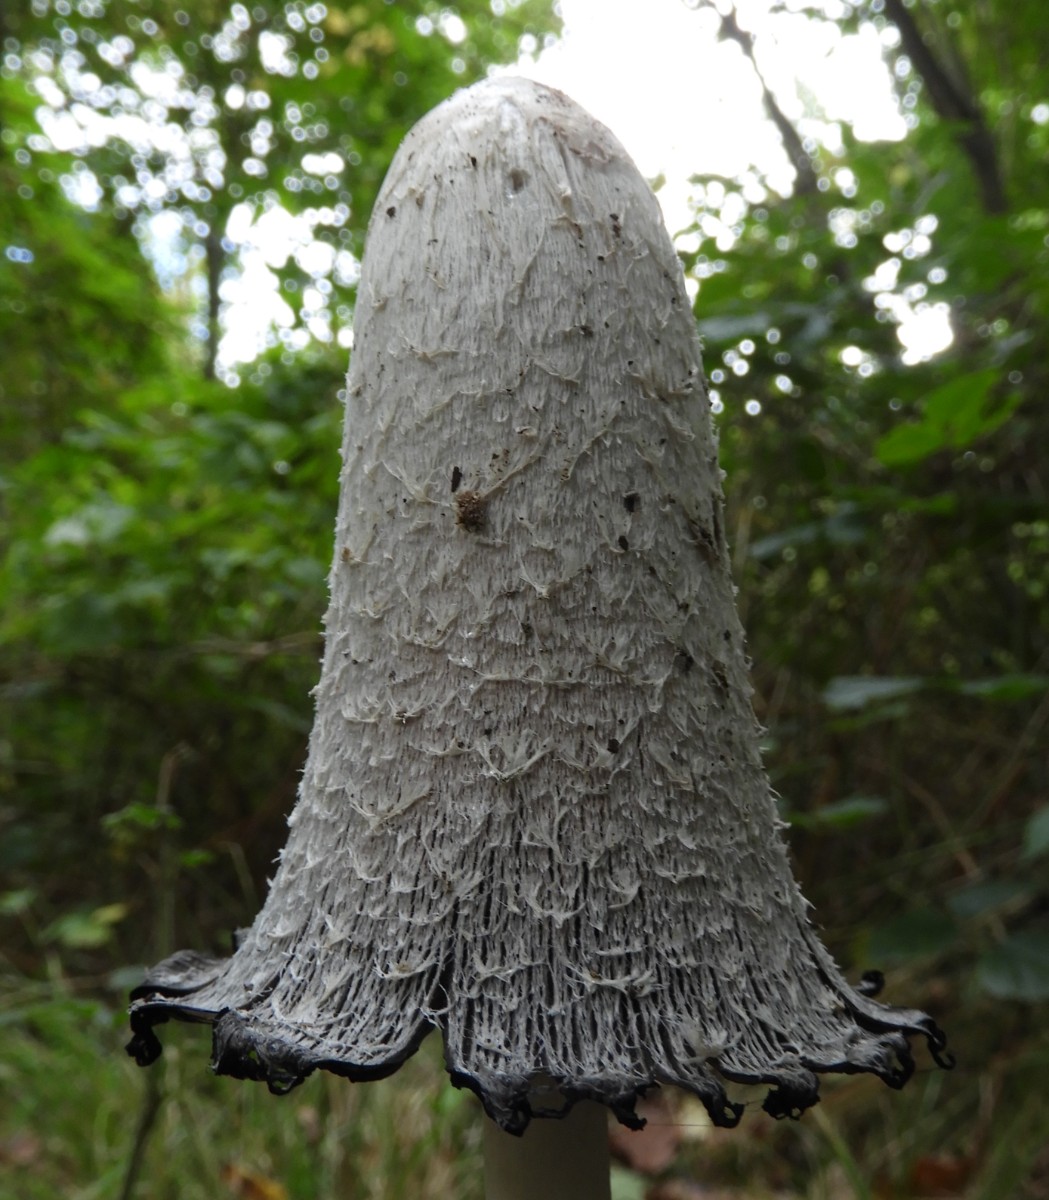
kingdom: Fungi
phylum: Basidiomycota
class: Agaricomycetes
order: Agaricales
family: Agaricaceae
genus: Coprinus
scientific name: Coprinus comatus
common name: stor parykhat
